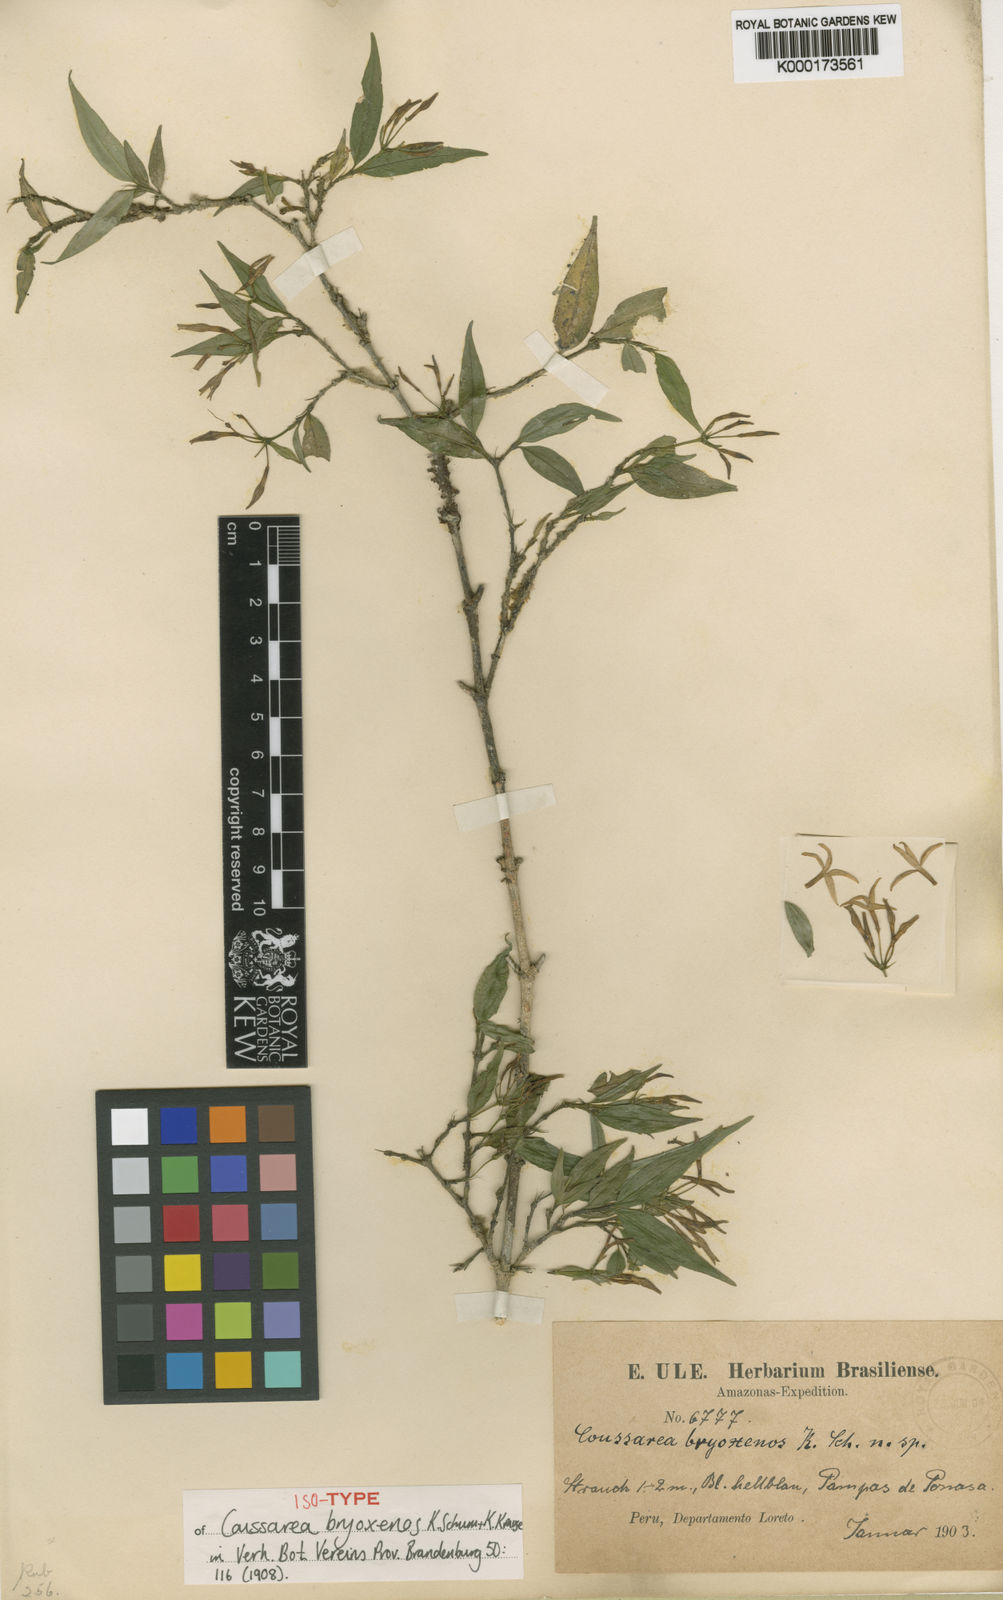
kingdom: Plantae
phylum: Tracheophyta
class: Magnoliopsida
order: Gentianales
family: Rubiaceae
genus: Faramea
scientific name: Faramea quinqueflora
